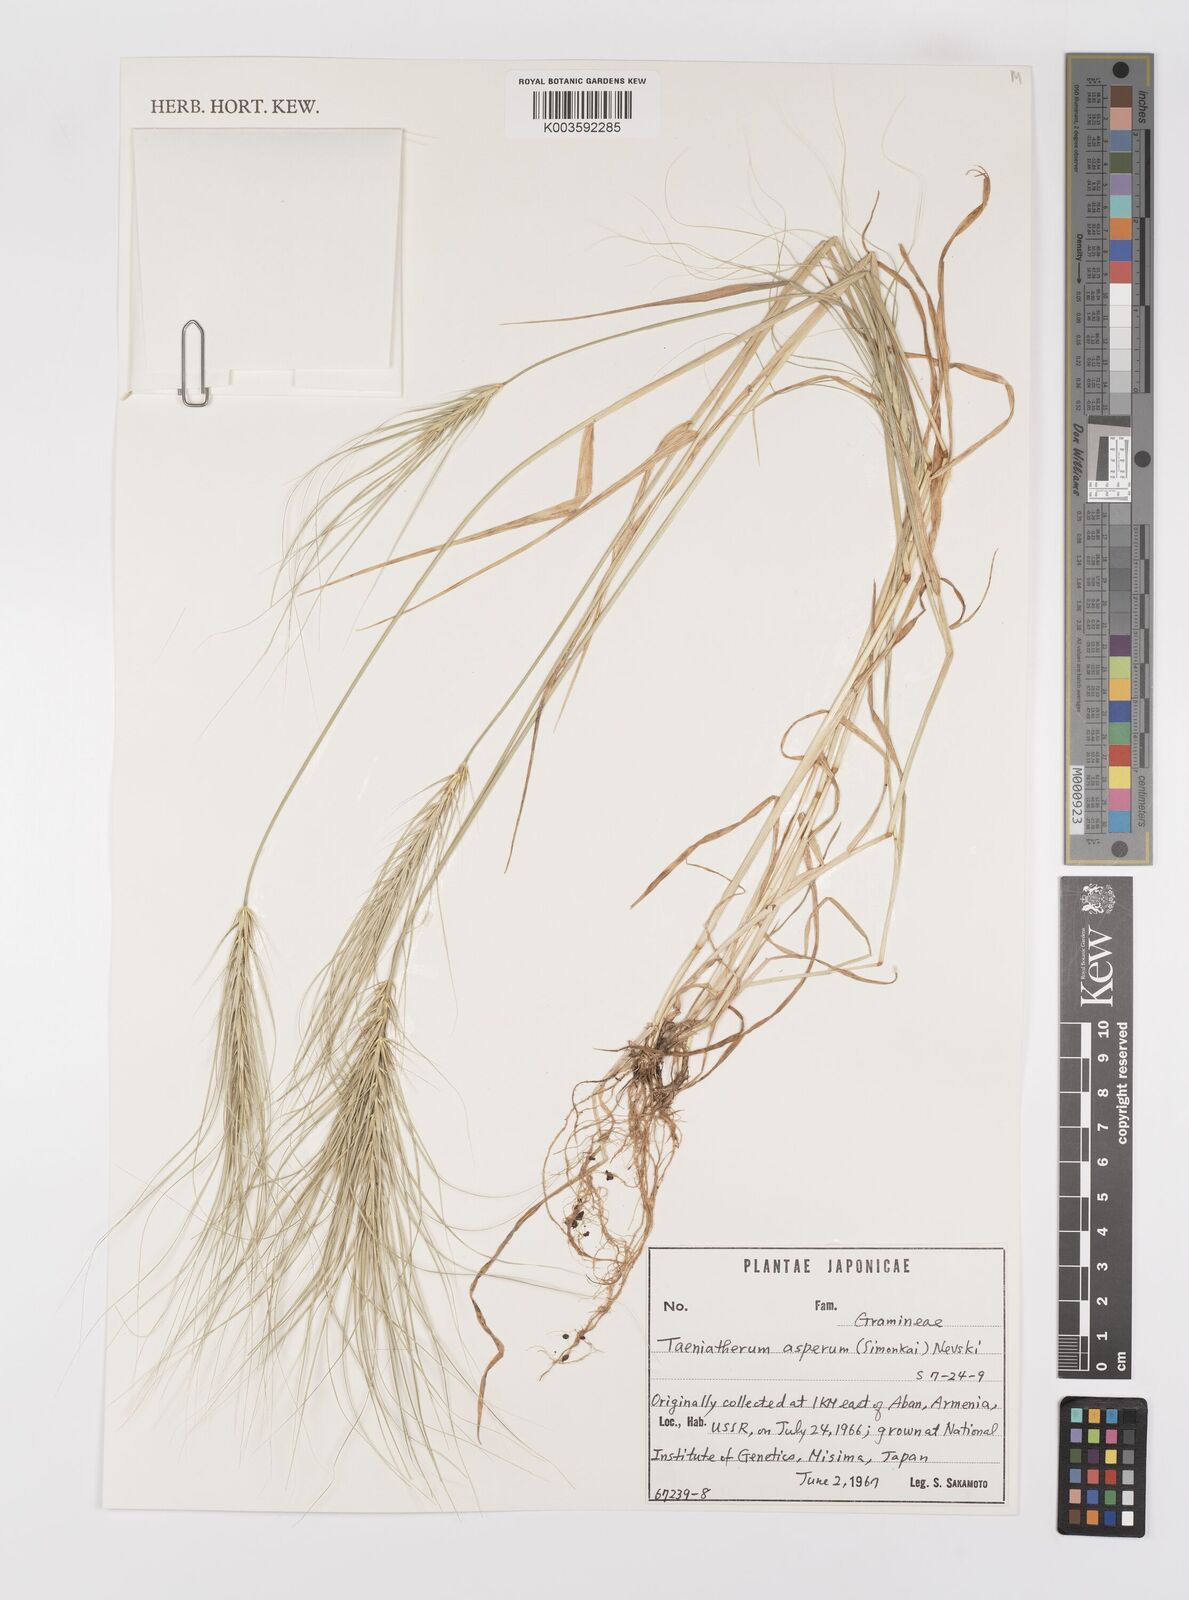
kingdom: Plantae
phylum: Tracheophyta
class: Liliopsida
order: Poales
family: Poaceae
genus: Taeniatherum
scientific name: Taeniatherum caput-medusae
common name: Medusahead
